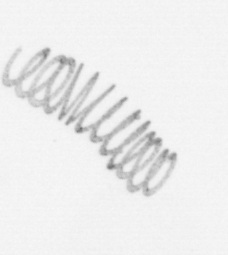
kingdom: Chromista
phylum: Ochrophyta
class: Bacillariophyceae
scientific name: Bacillariophyceae
